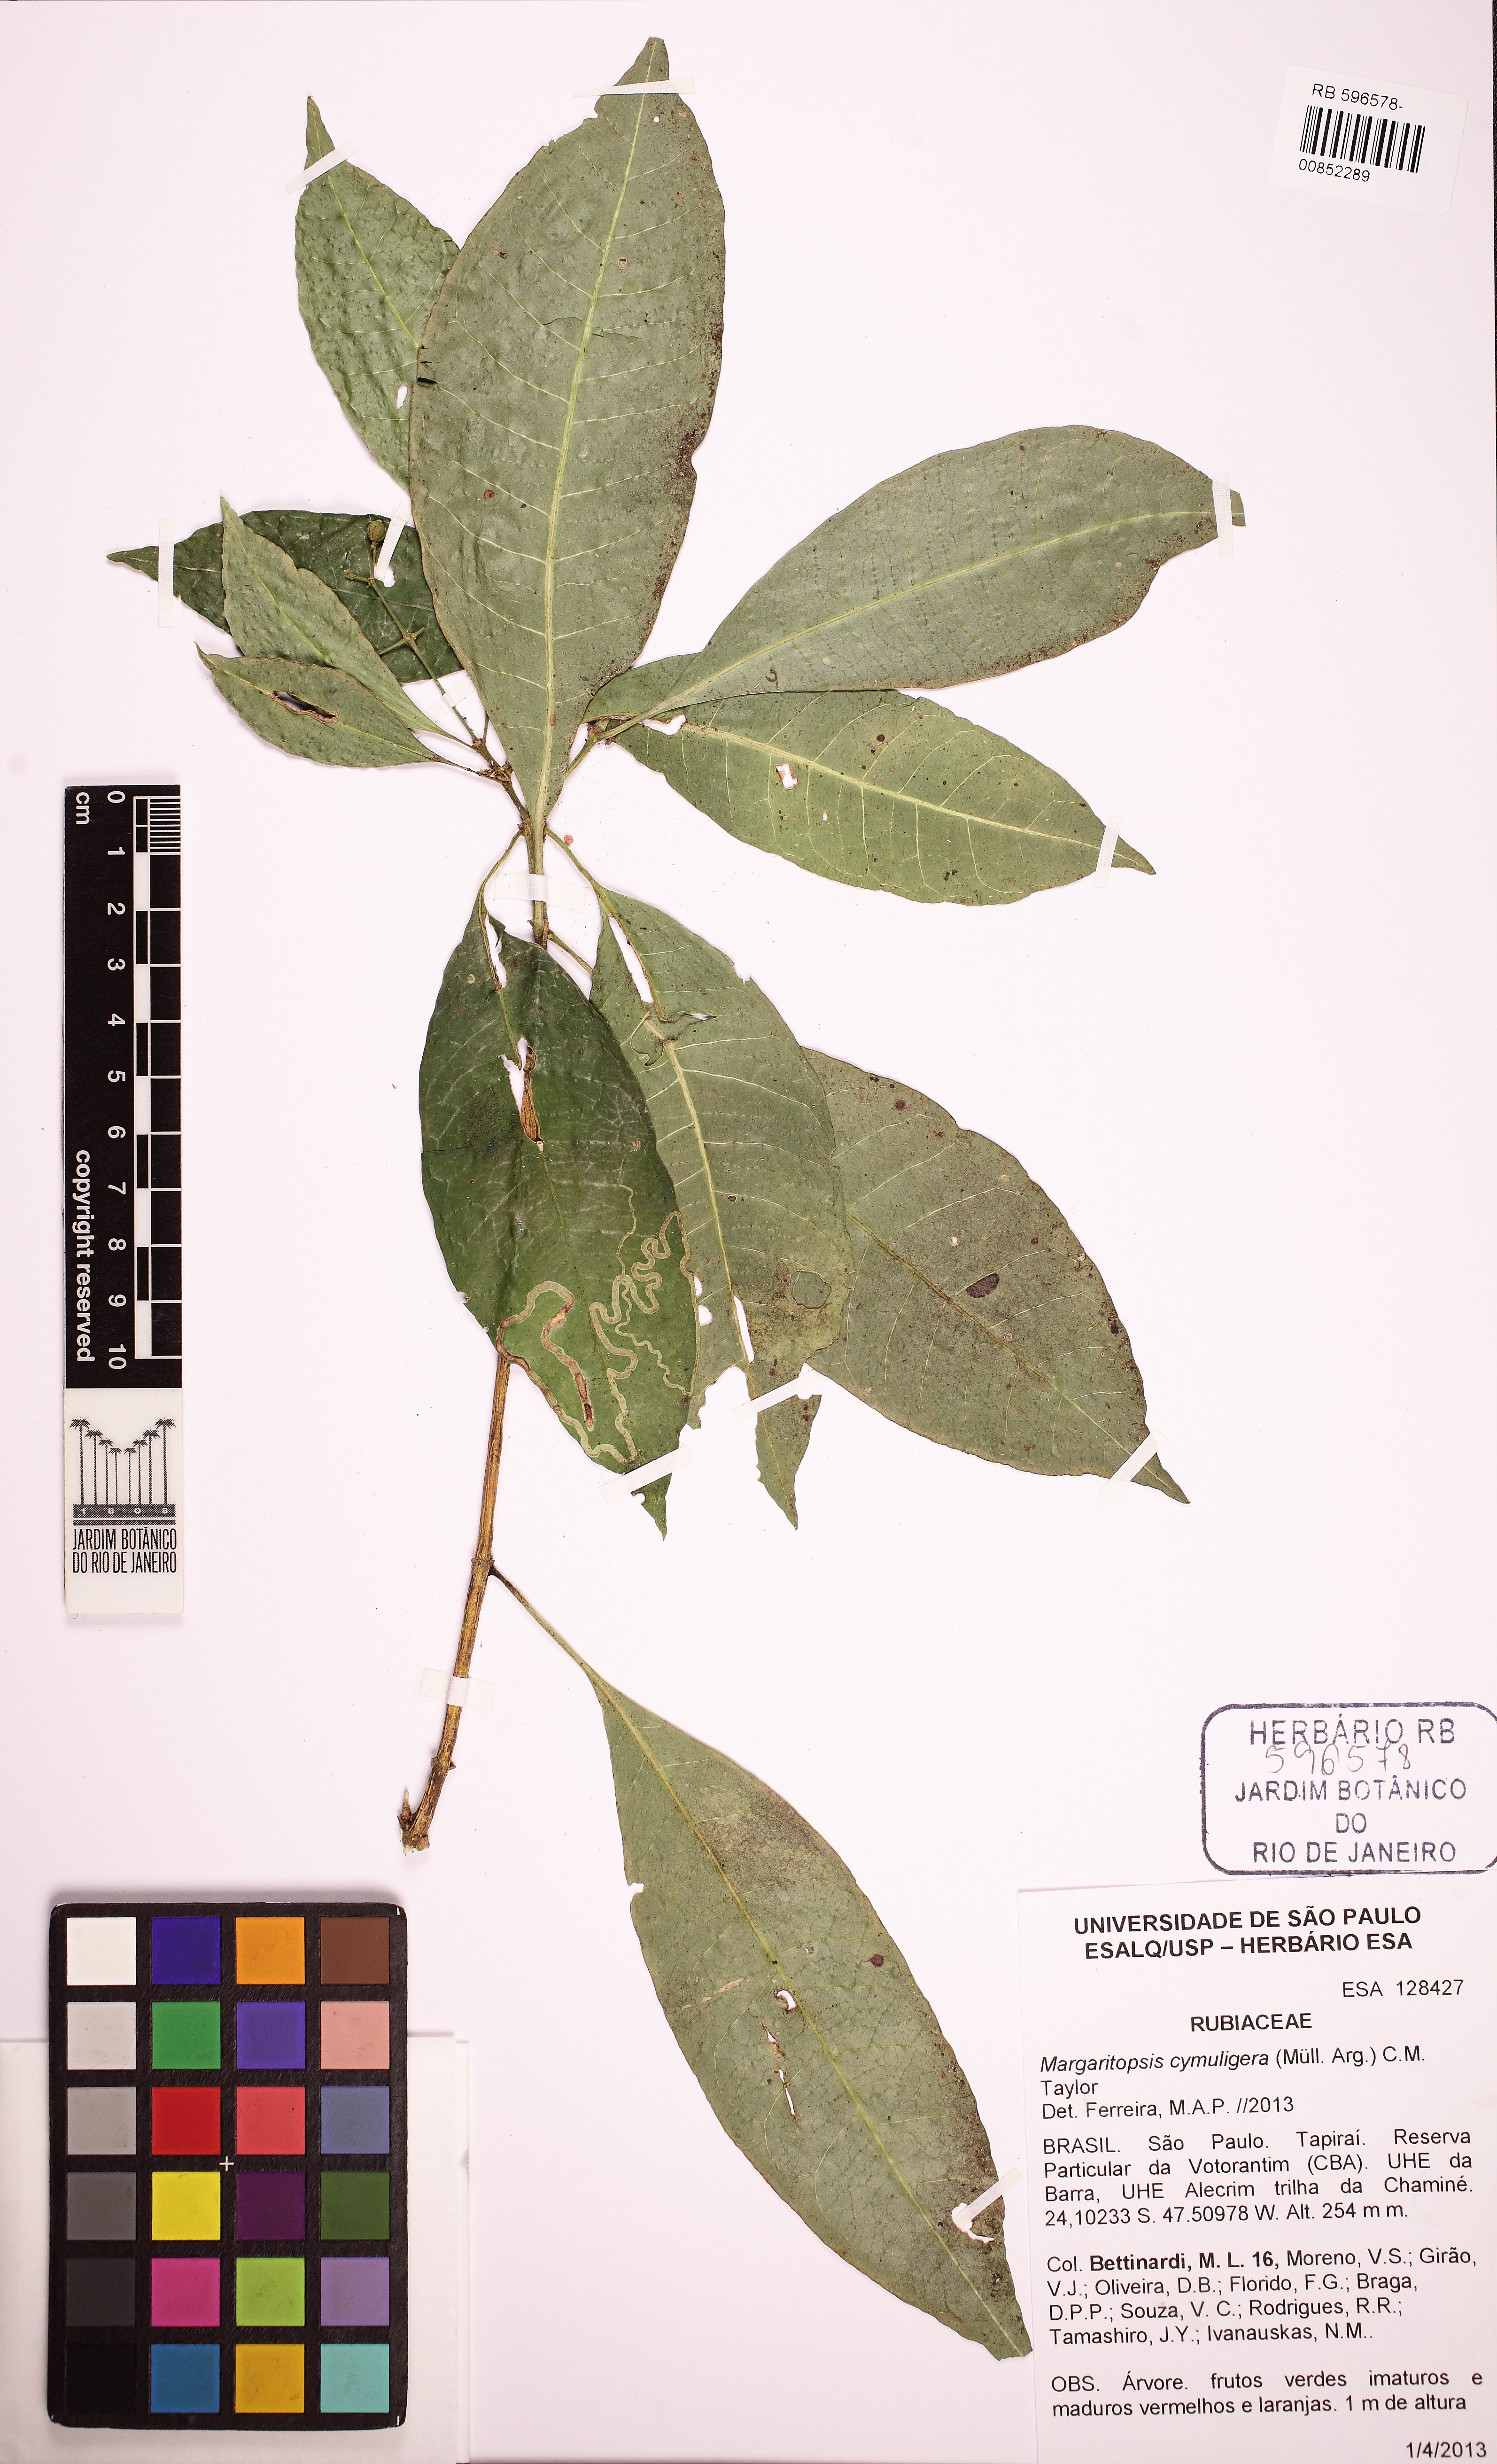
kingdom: Plantae
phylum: Tracheophyta
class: Magnoliopsida
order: Gentianales
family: Rubiaceae
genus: Eumachia
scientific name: Eumachia cymuligera
